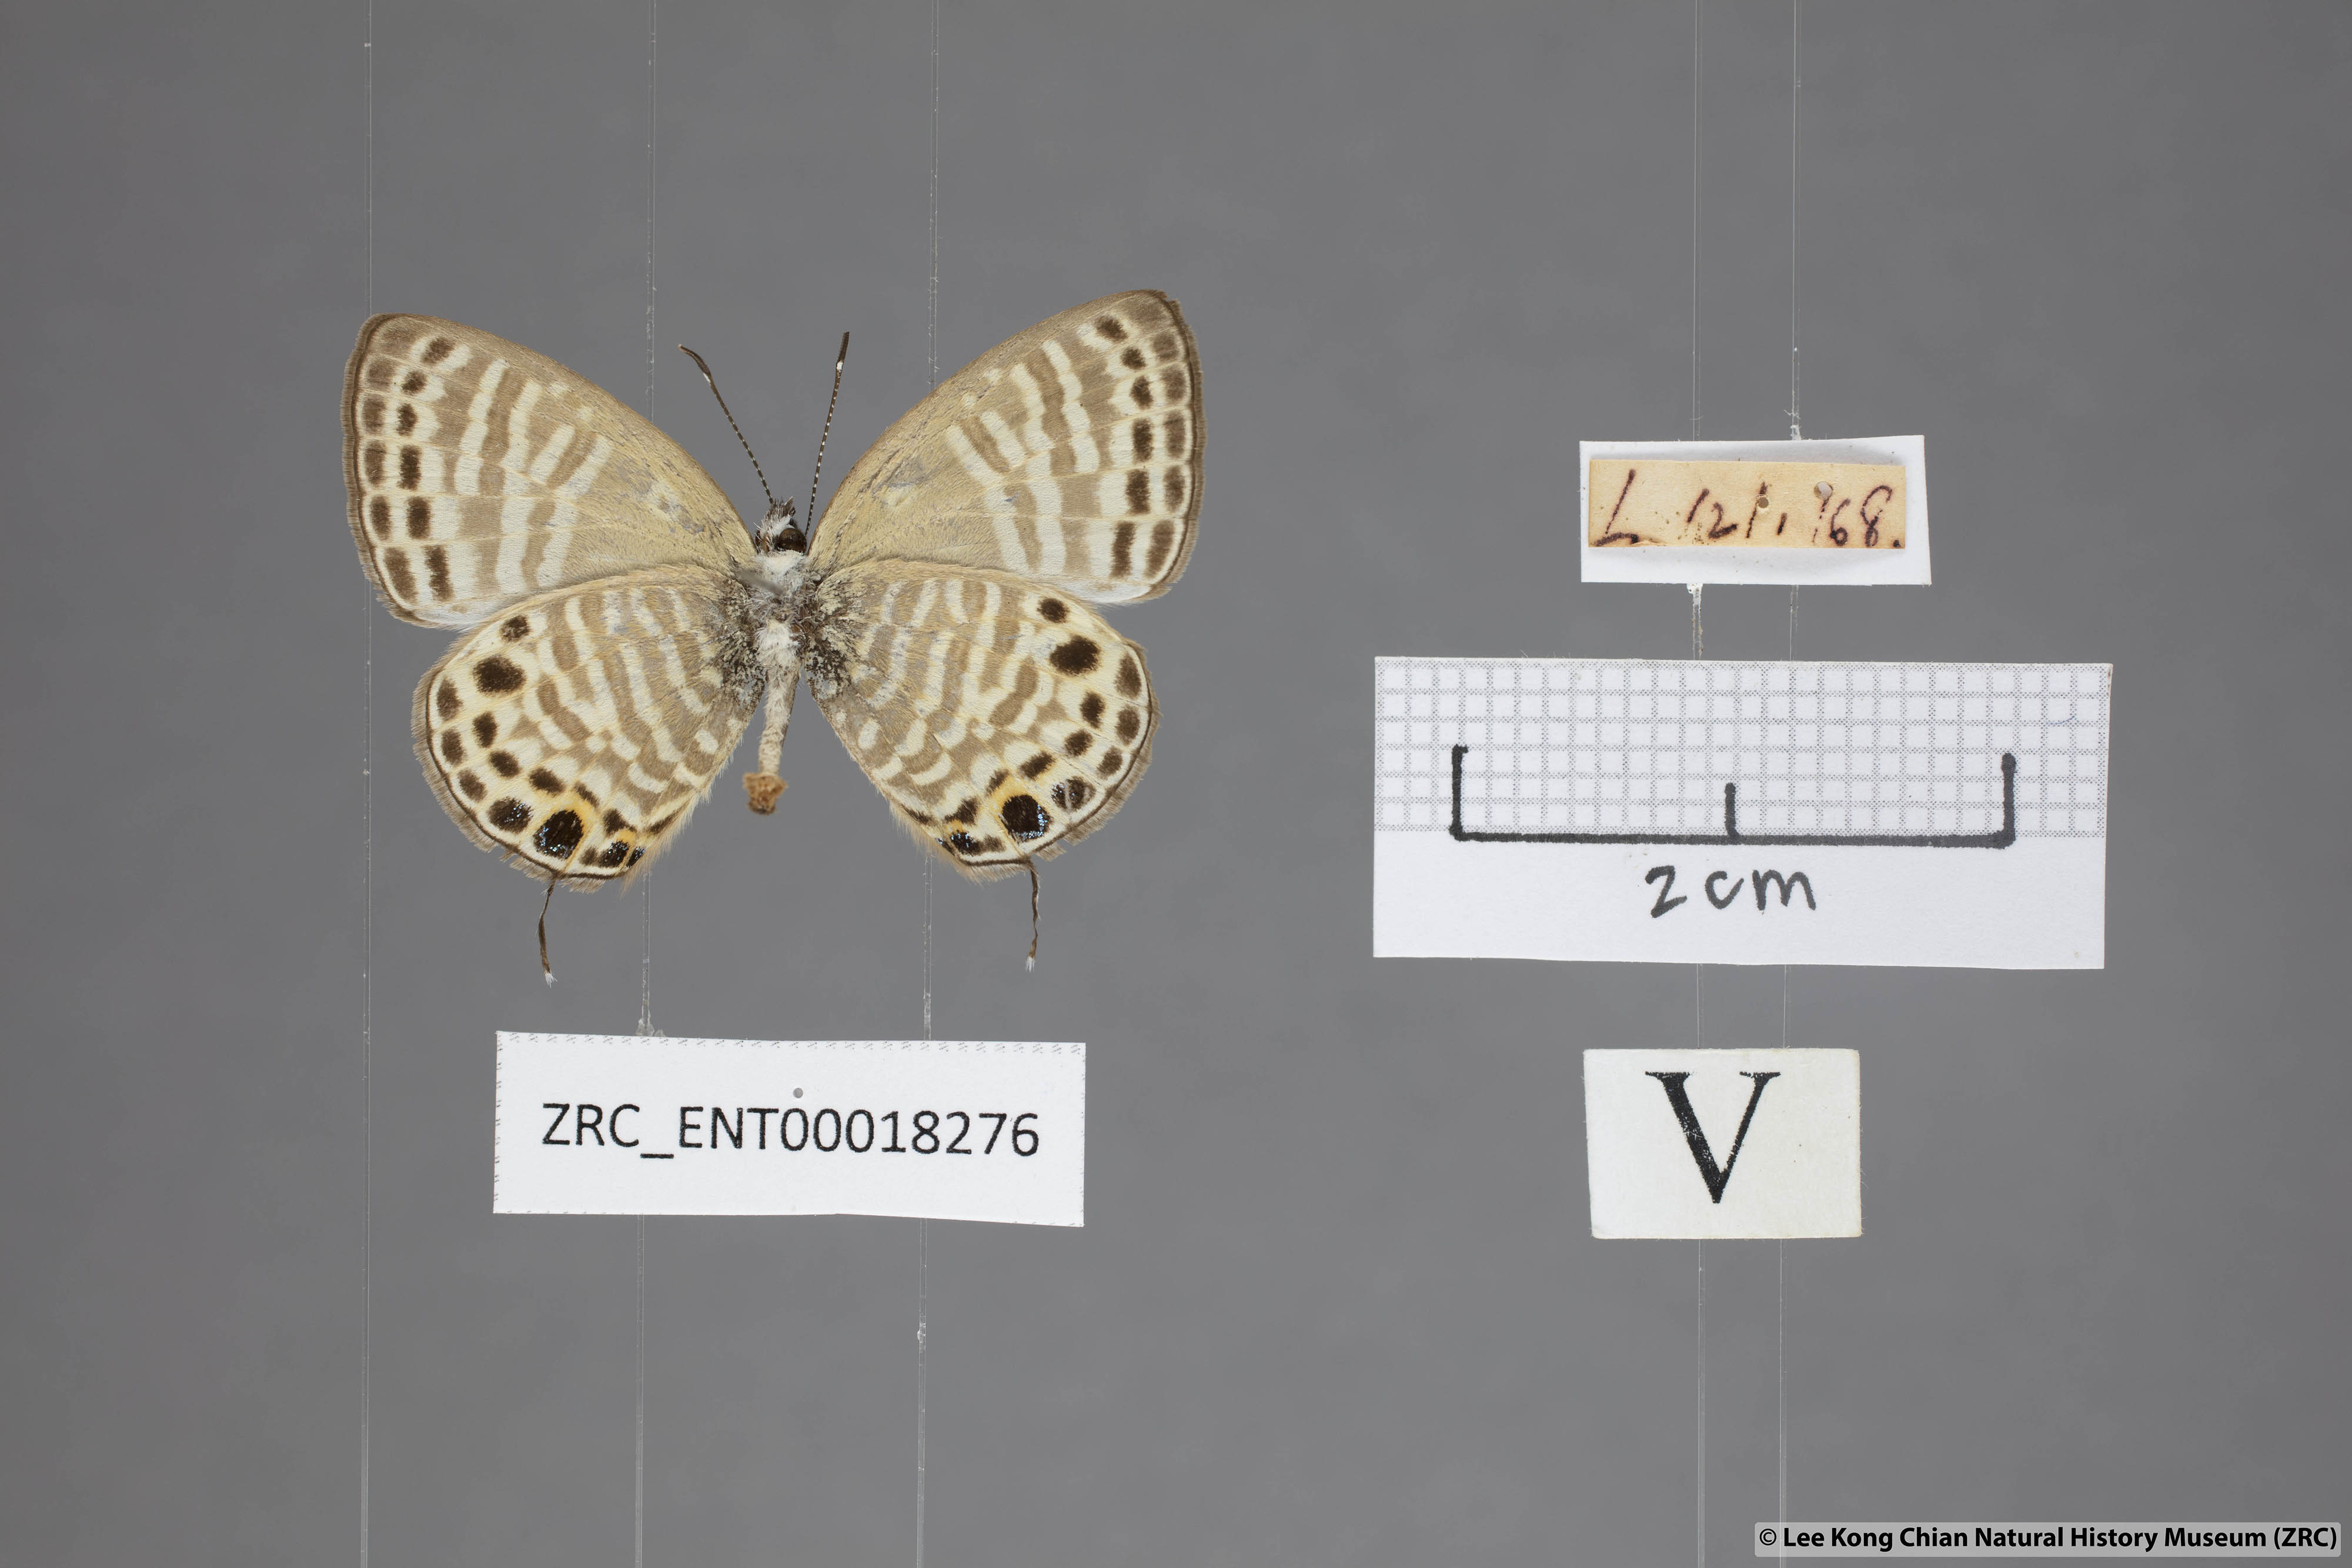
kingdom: Animalia
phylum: Arthropoda
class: Insecta
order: Lepidoptera
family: Lycaenidae
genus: Nacaduba
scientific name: Nacaduba angusta
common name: White four-line blue
